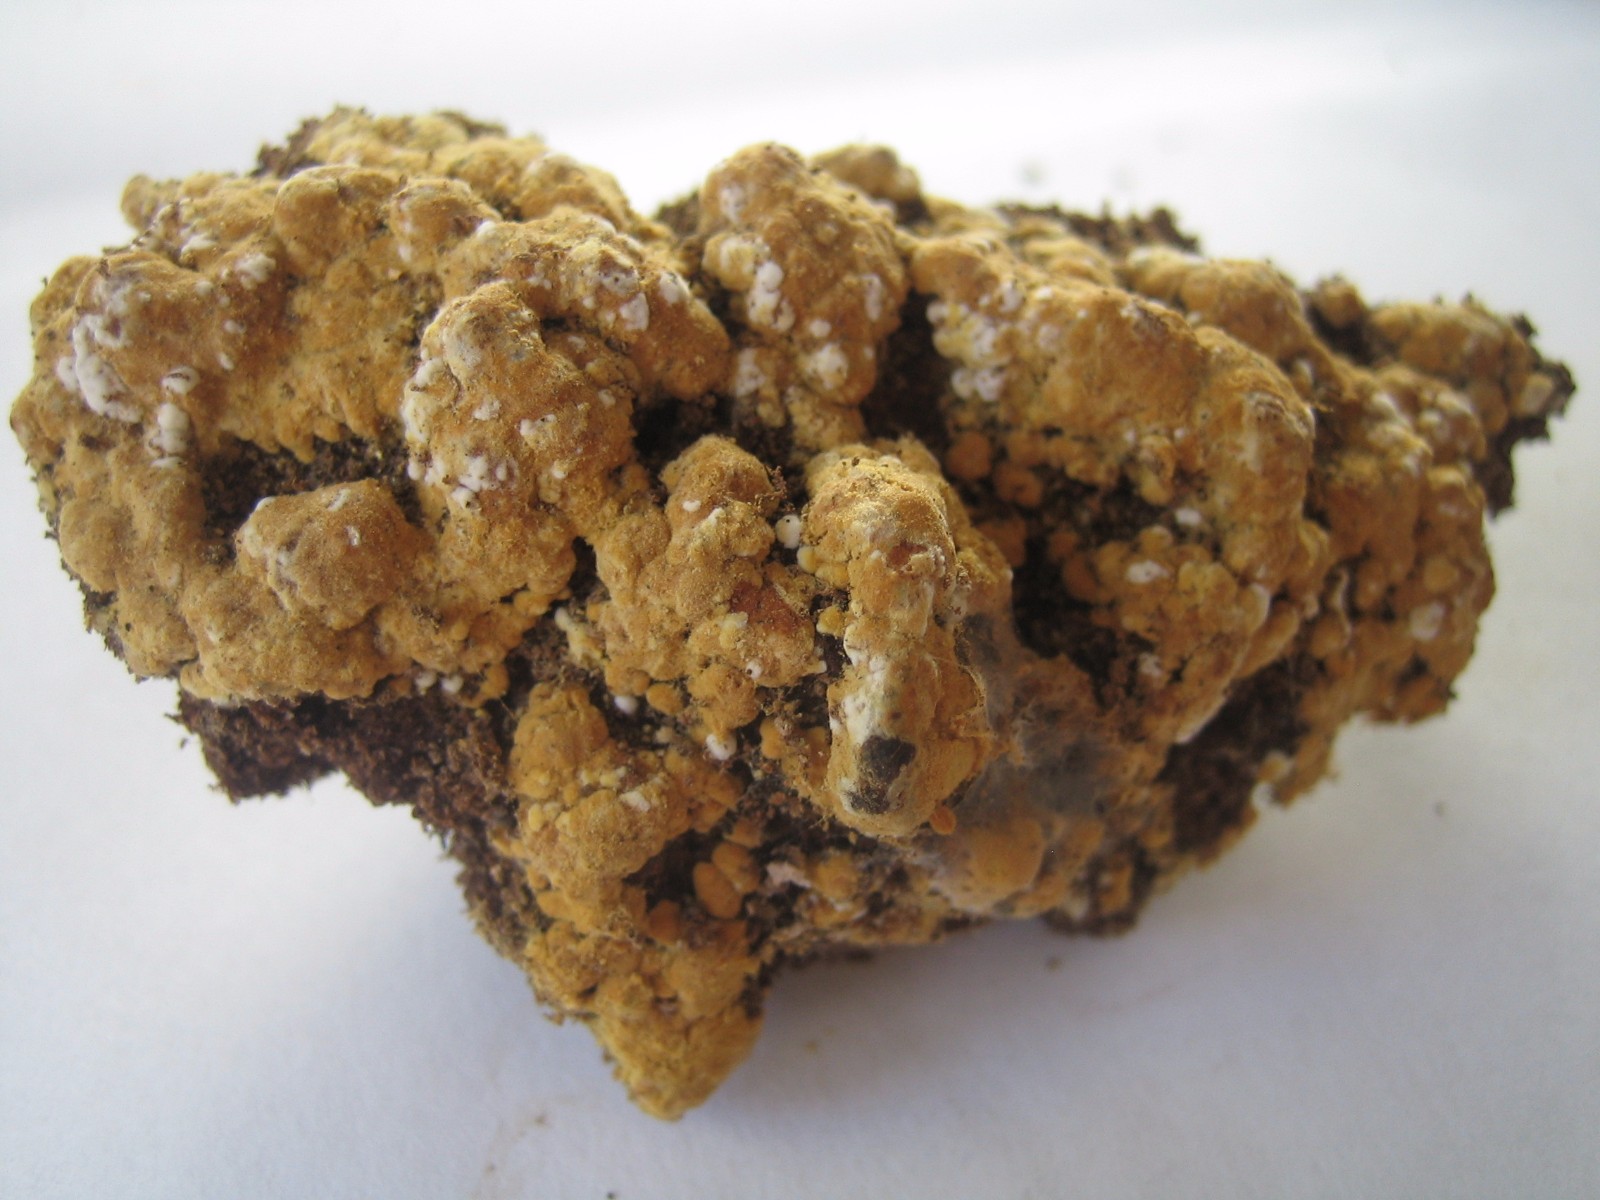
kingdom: Fungi
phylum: Basidiomycota
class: Agaricomycetes
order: Cantharellales
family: Botryobasidiaceae
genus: Botryobasidium
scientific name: Botryobasidium aureum
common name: gylden spindhinde
